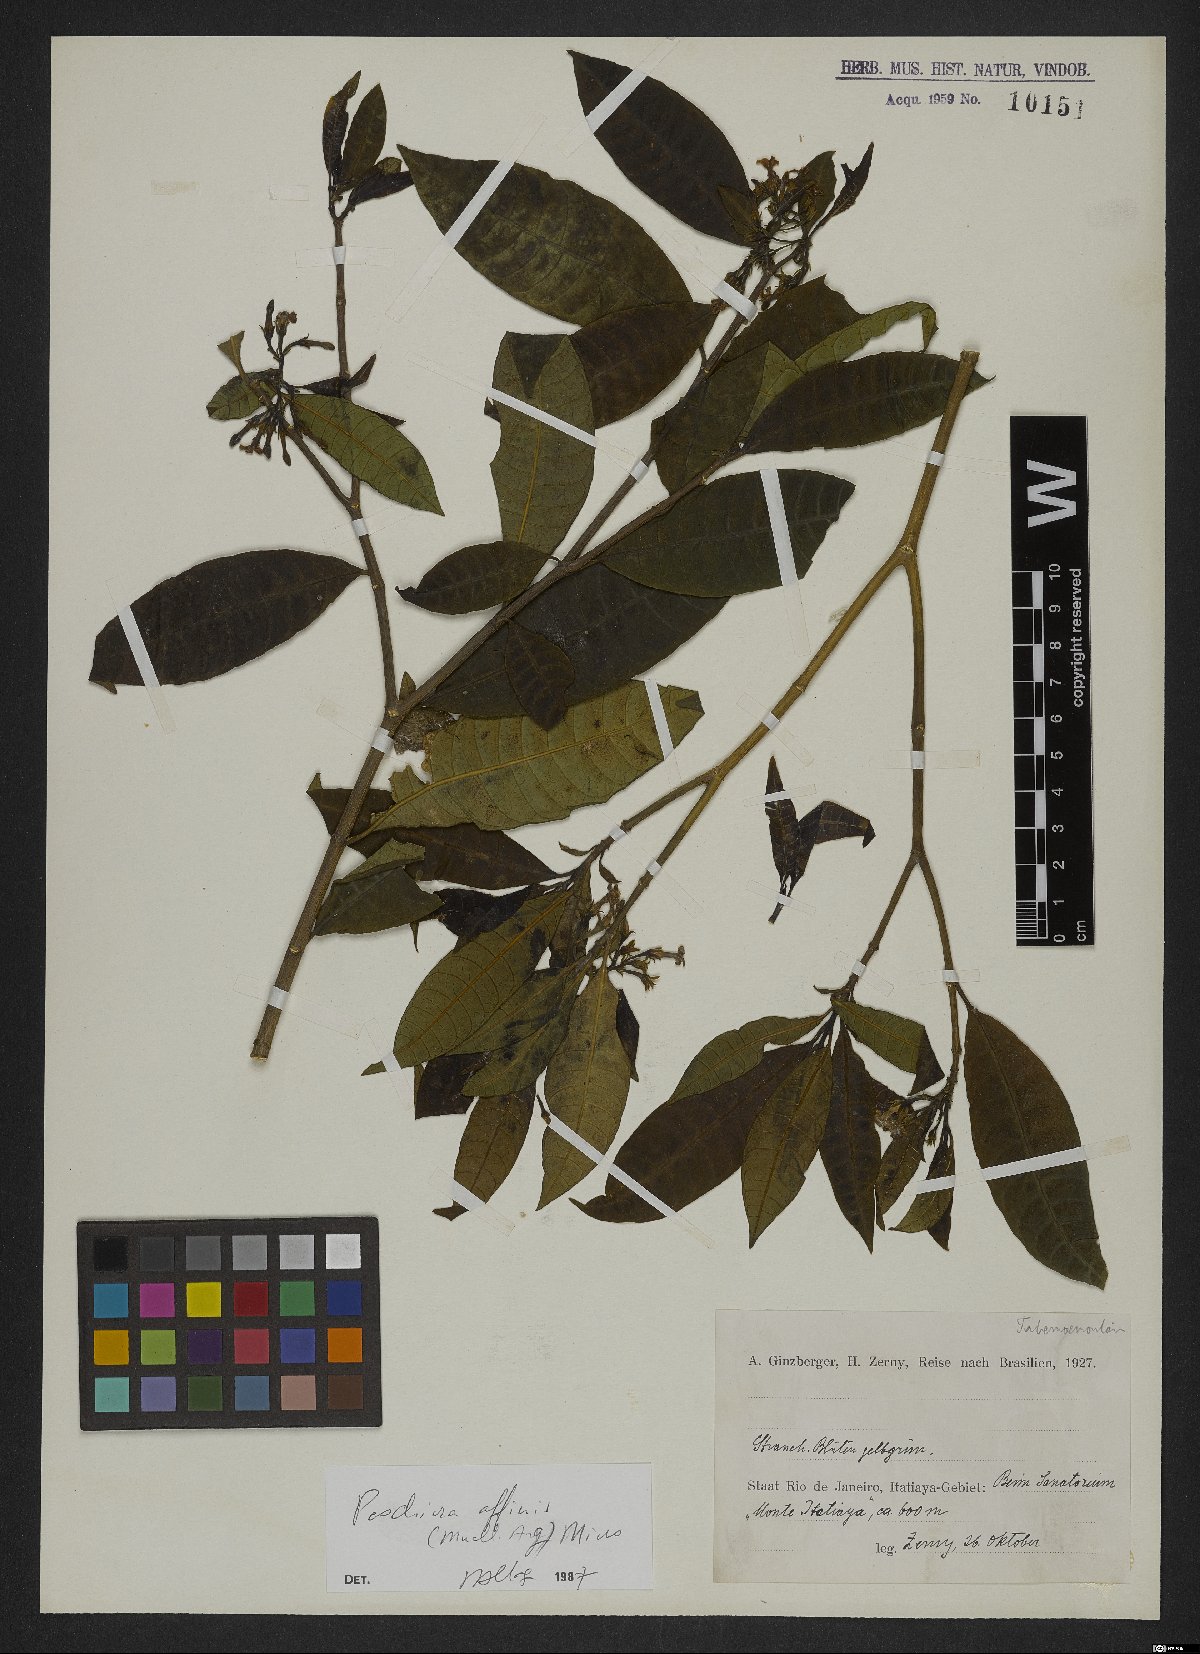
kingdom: Plantae
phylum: Tracheophyta
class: Magnoliopsida
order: Gentianales
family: Apocynaceae
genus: Tabernaemontana
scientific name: Tabernaemontana catharinensis
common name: Pinwheel-flower
